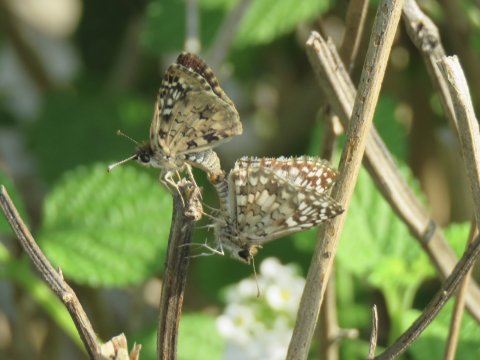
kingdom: Animalia
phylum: Arthropoda
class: Insecta
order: Lepidoptera
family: Hesperiidae
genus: Pyrgus
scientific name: Pyrgus oileus
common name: Tropical Checkered-Skipper
